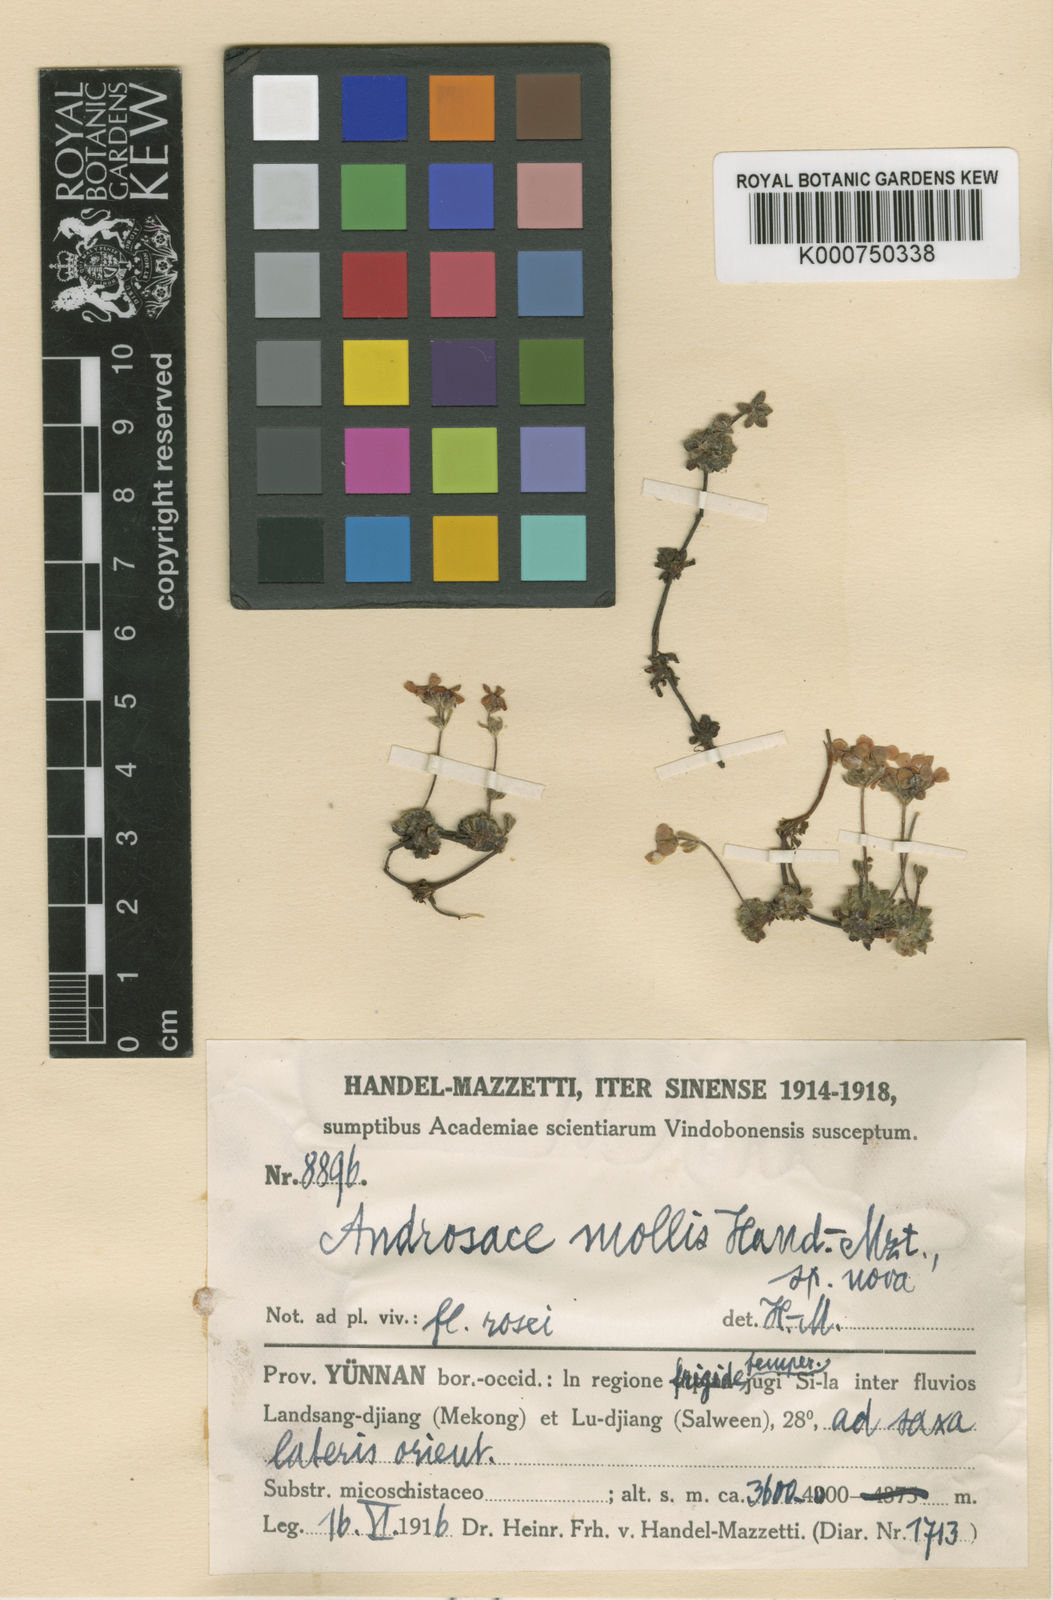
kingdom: Plantae
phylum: Tracheophyta
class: Magnoliopsida
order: Ericales
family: Primulaceae
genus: Androsace
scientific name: Androsace mollis
